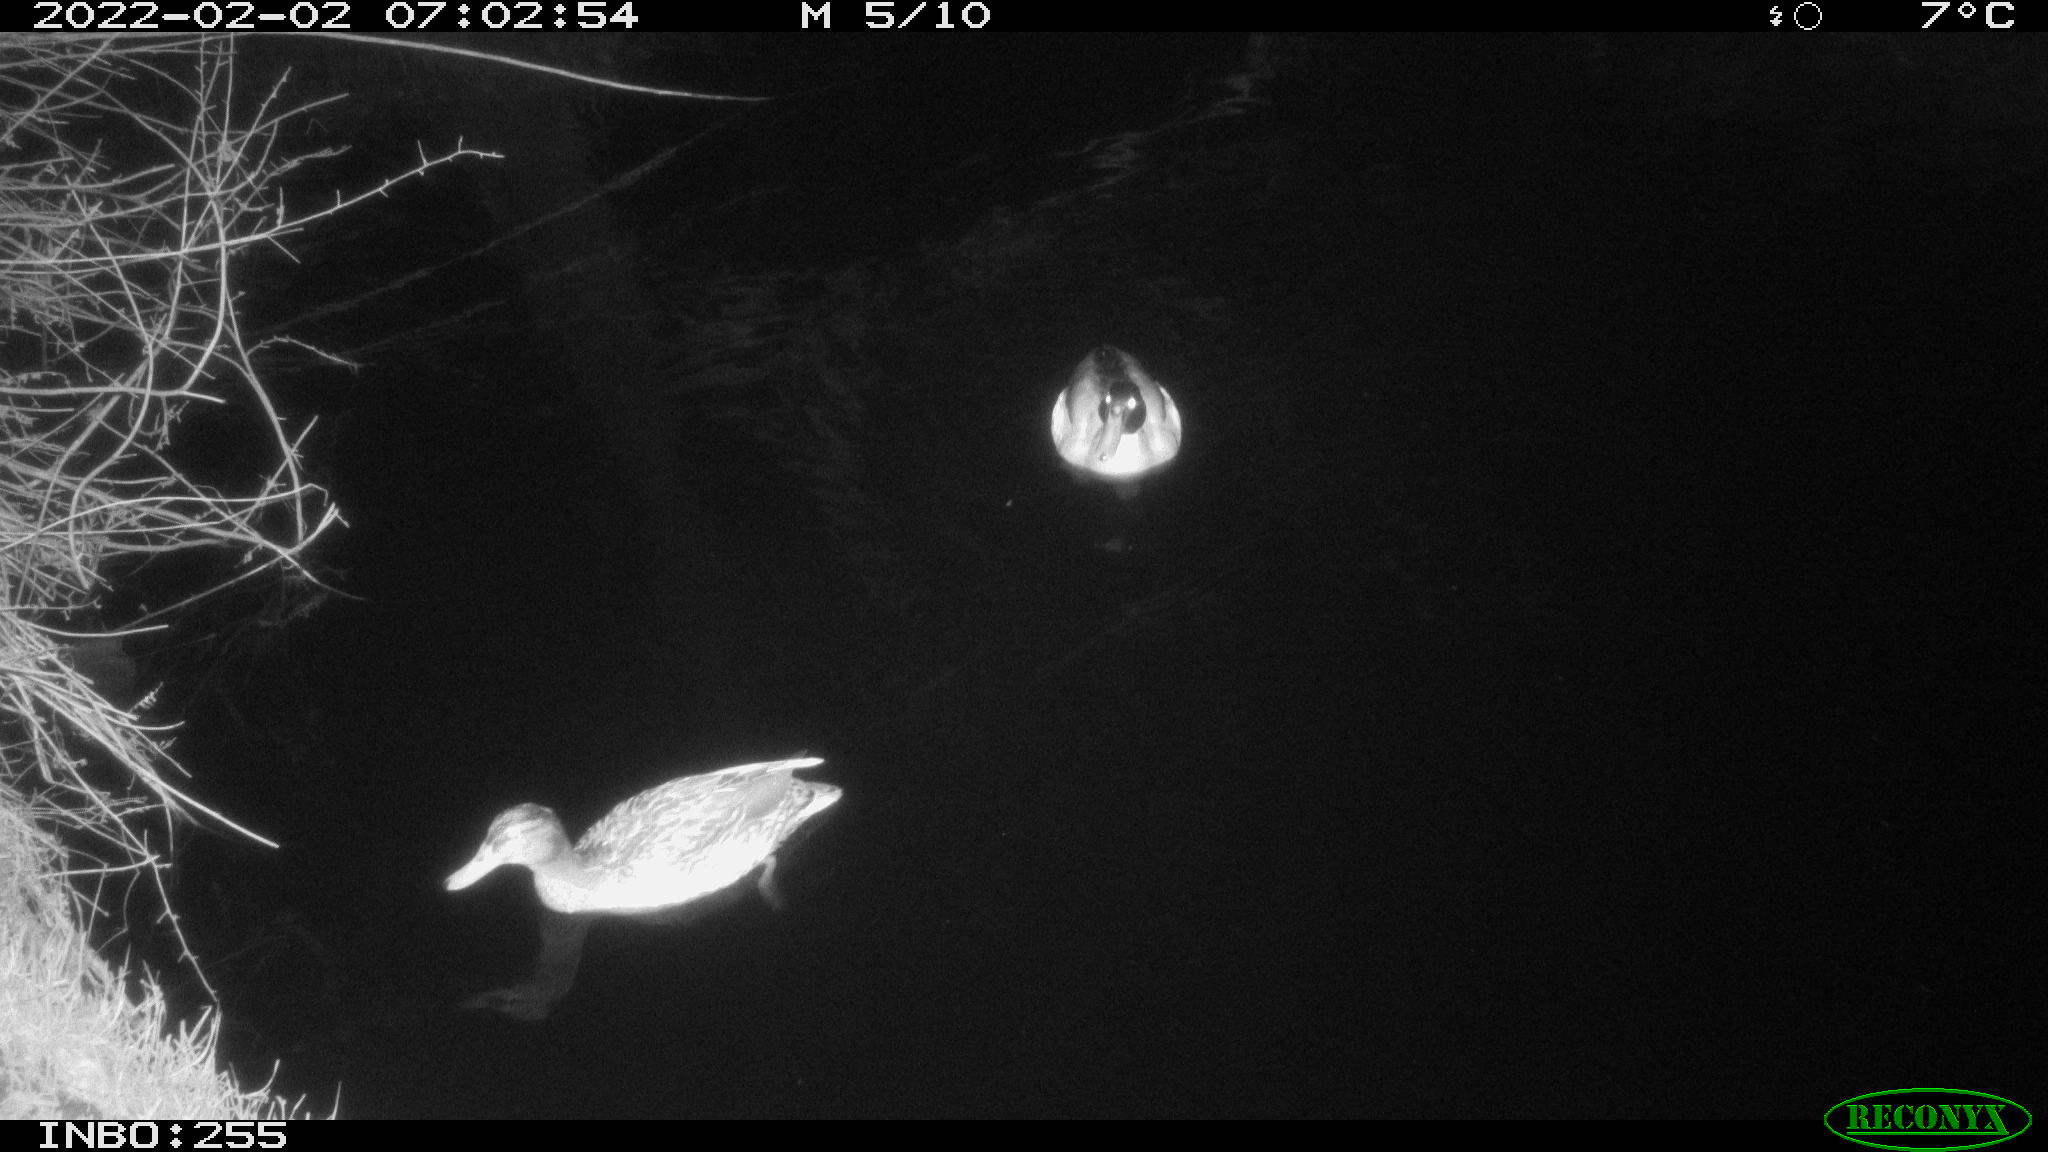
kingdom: Animalia
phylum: Chordata
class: Aves
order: Anseriformes
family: Anatidae
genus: Anas
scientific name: Anas
